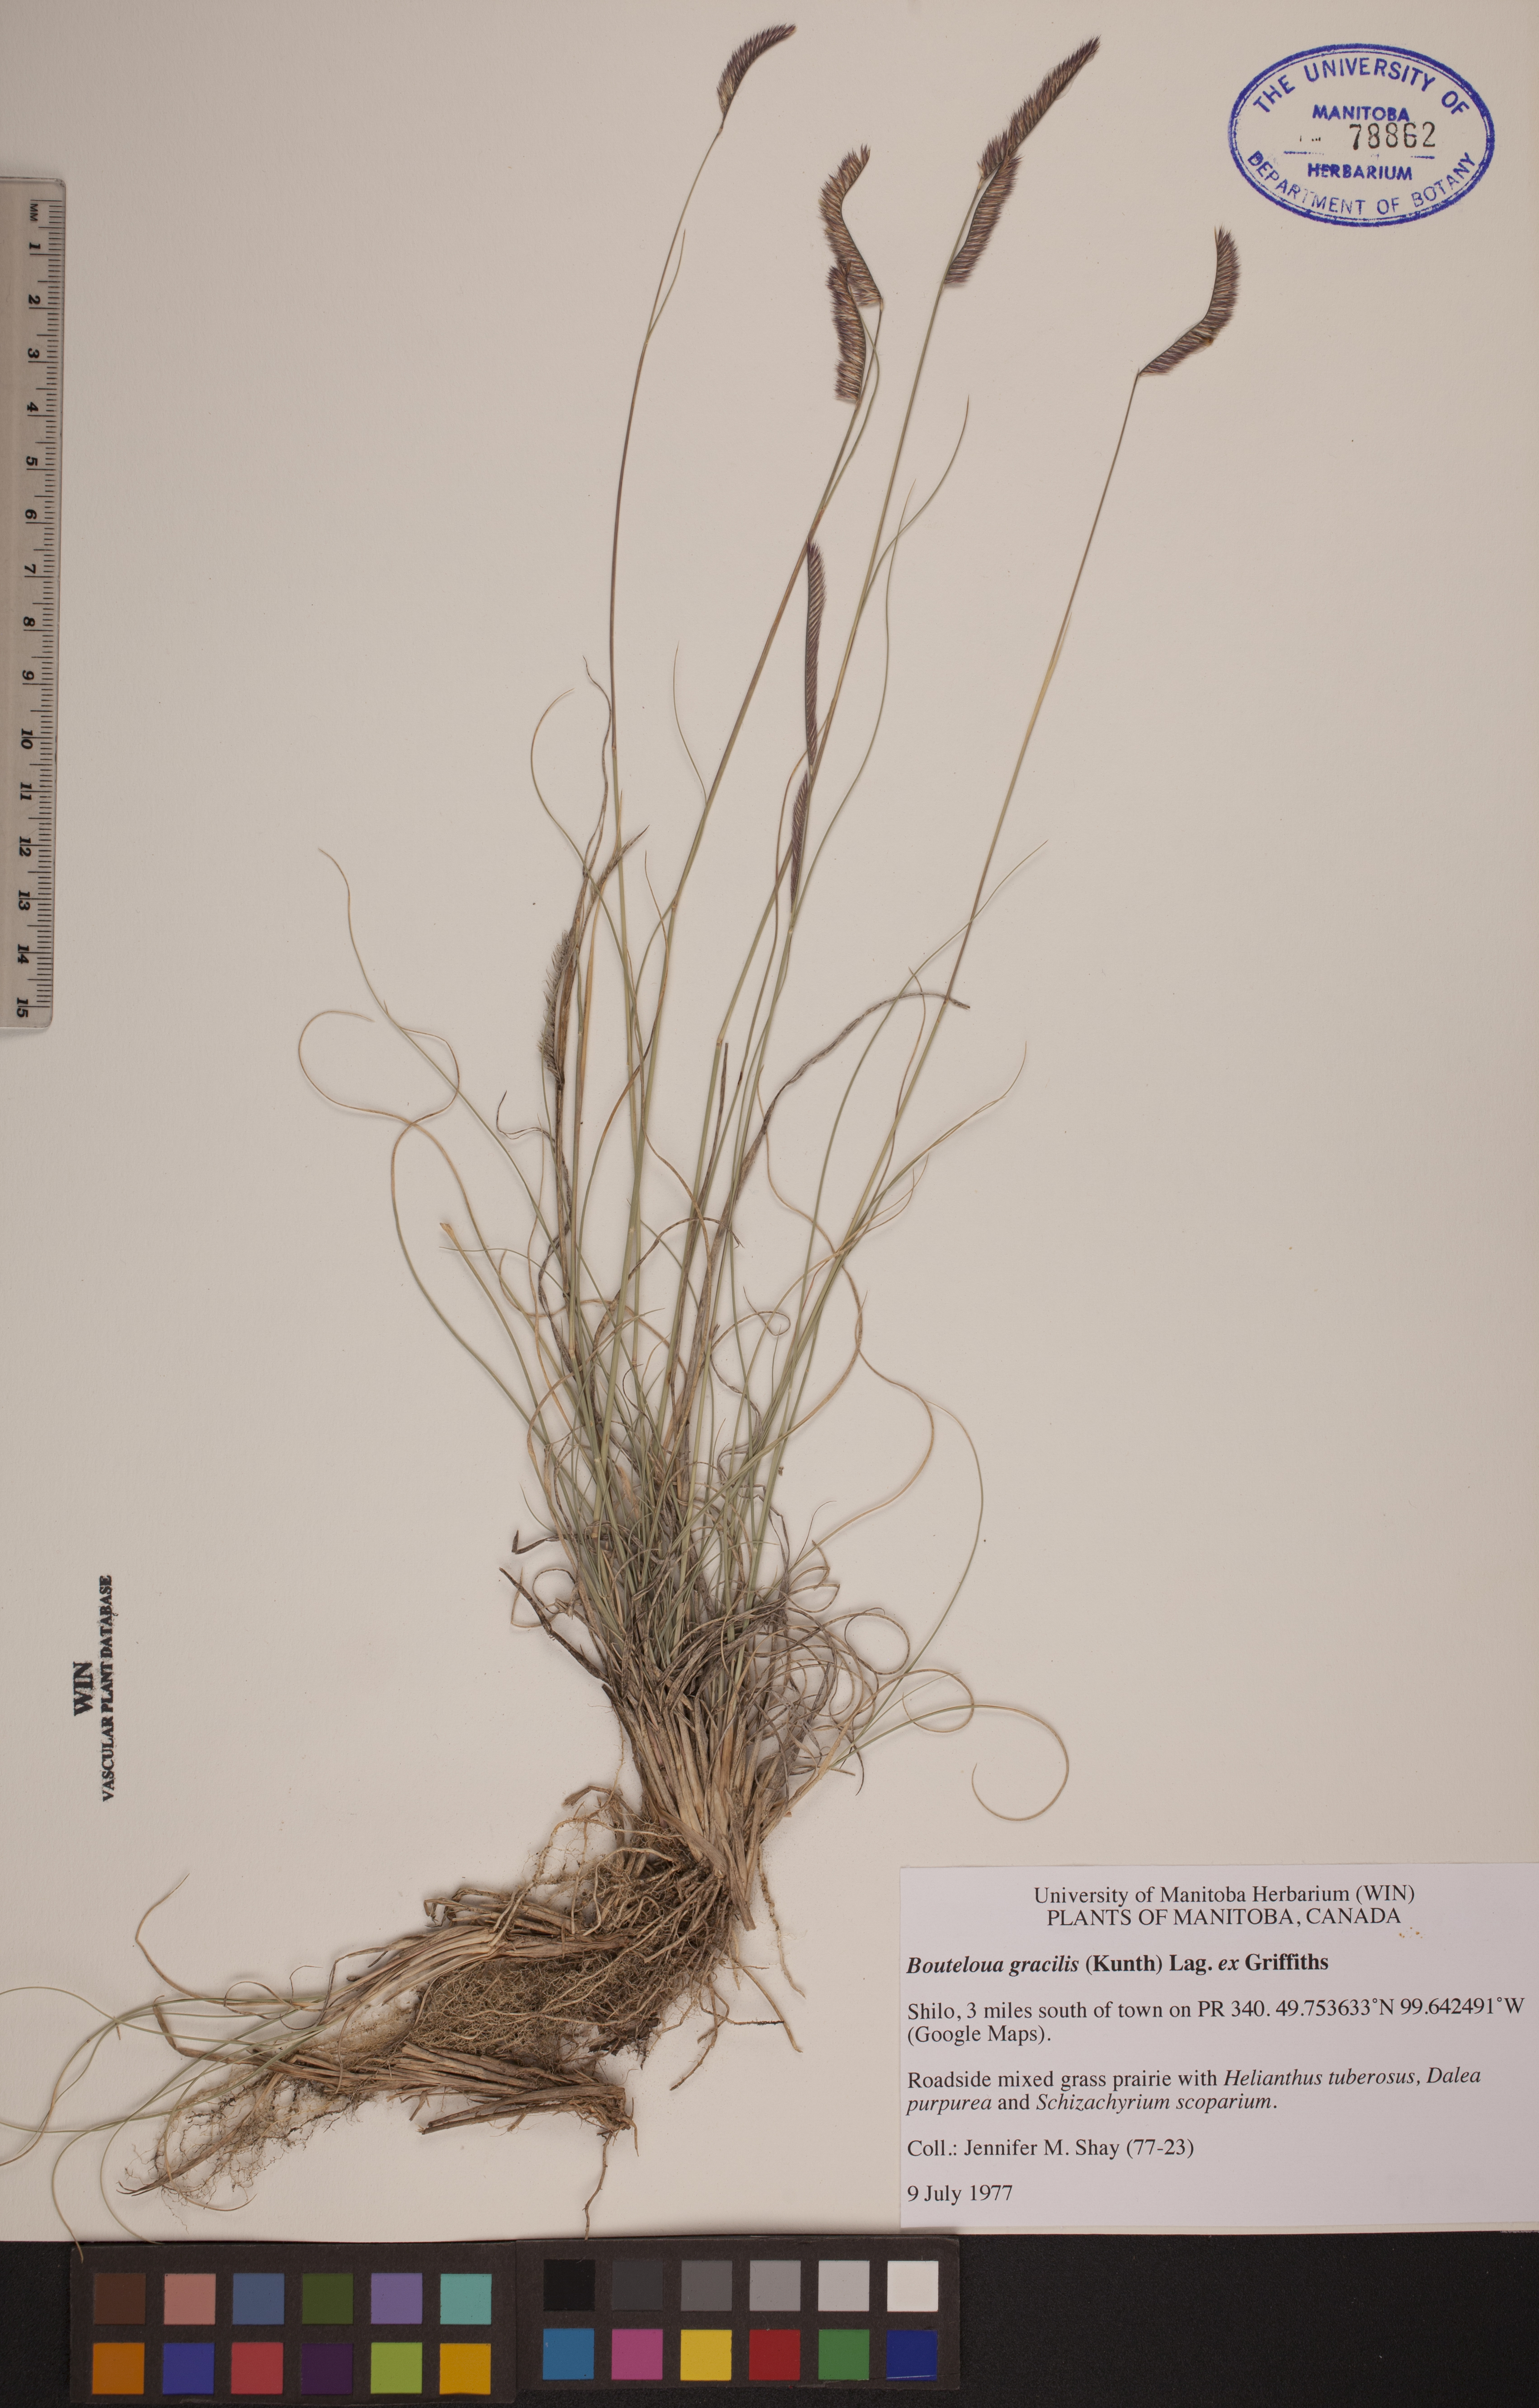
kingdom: Plantae
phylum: Tracheophyta
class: Liliopsida
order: Poales
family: Poaceae
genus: Bouteloua
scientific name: Bouteloua gracilis
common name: Blue grama
